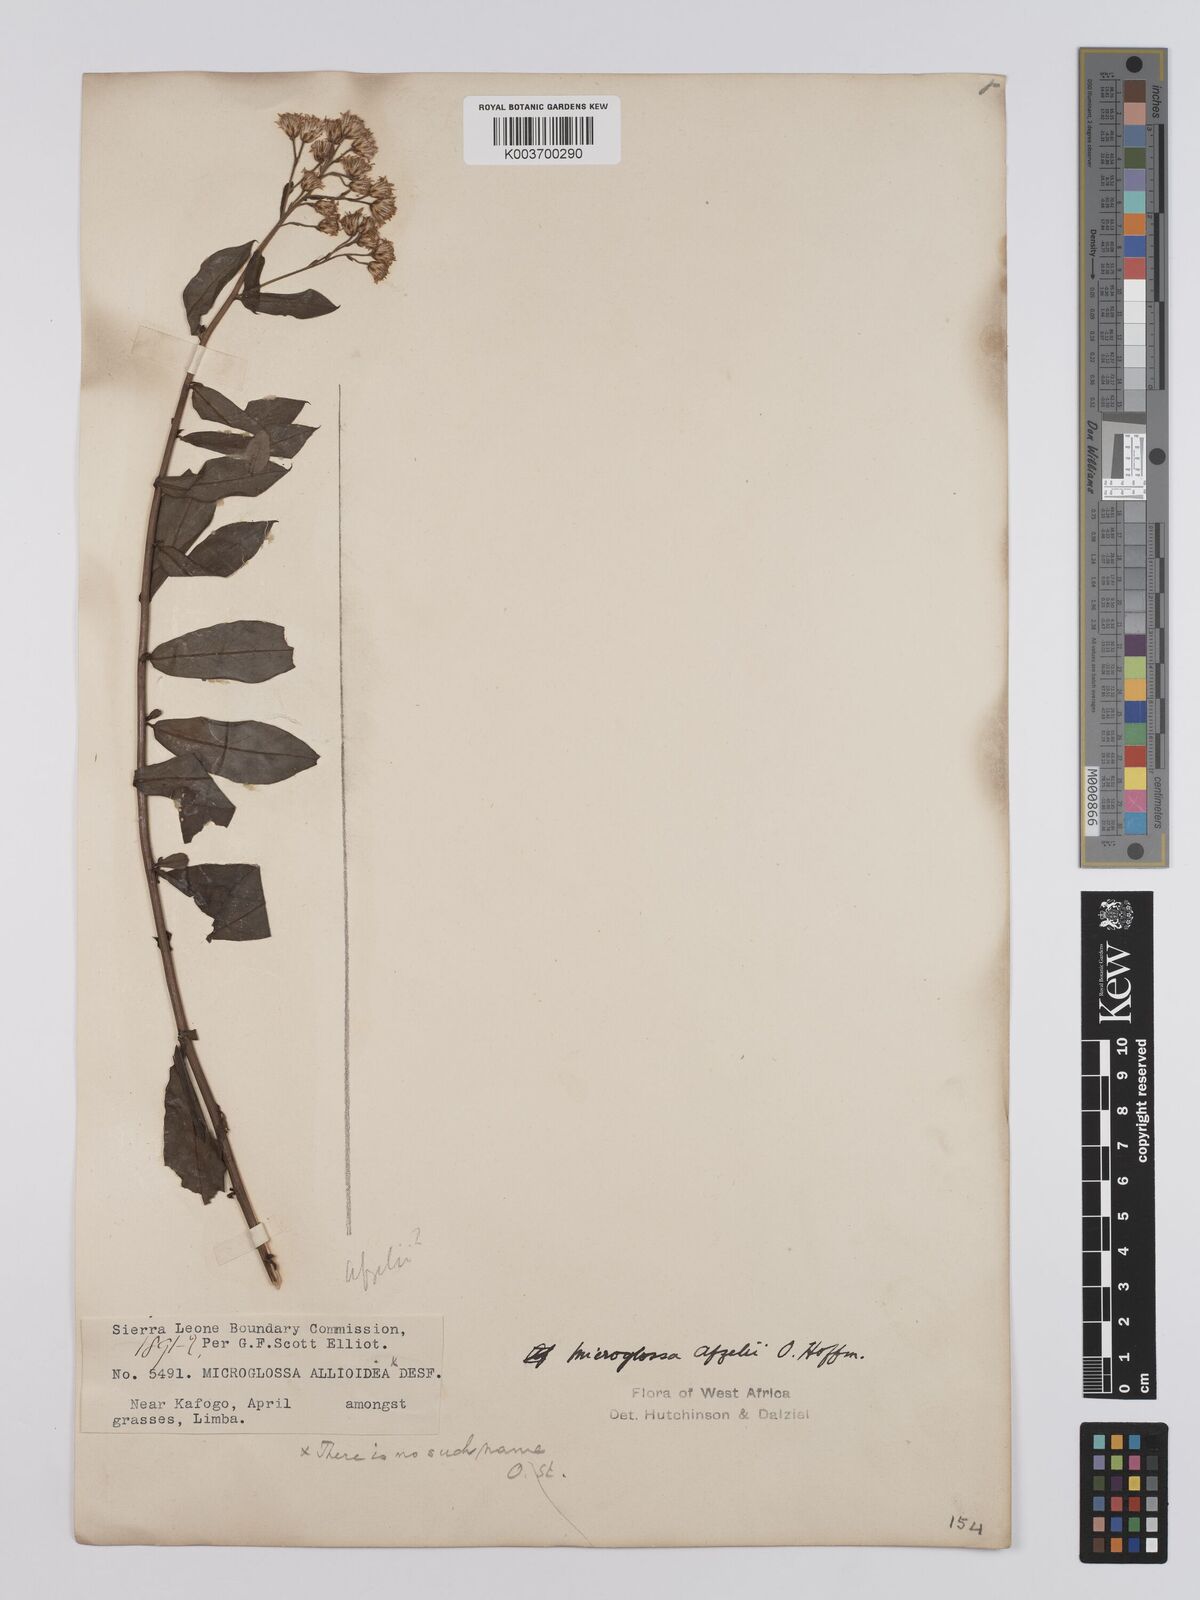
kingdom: Plantae
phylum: Tracheophyta
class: Magnoliopsida
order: Asterales
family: Asteraceae
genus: Microglossa
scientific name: Microglossa afzelii
